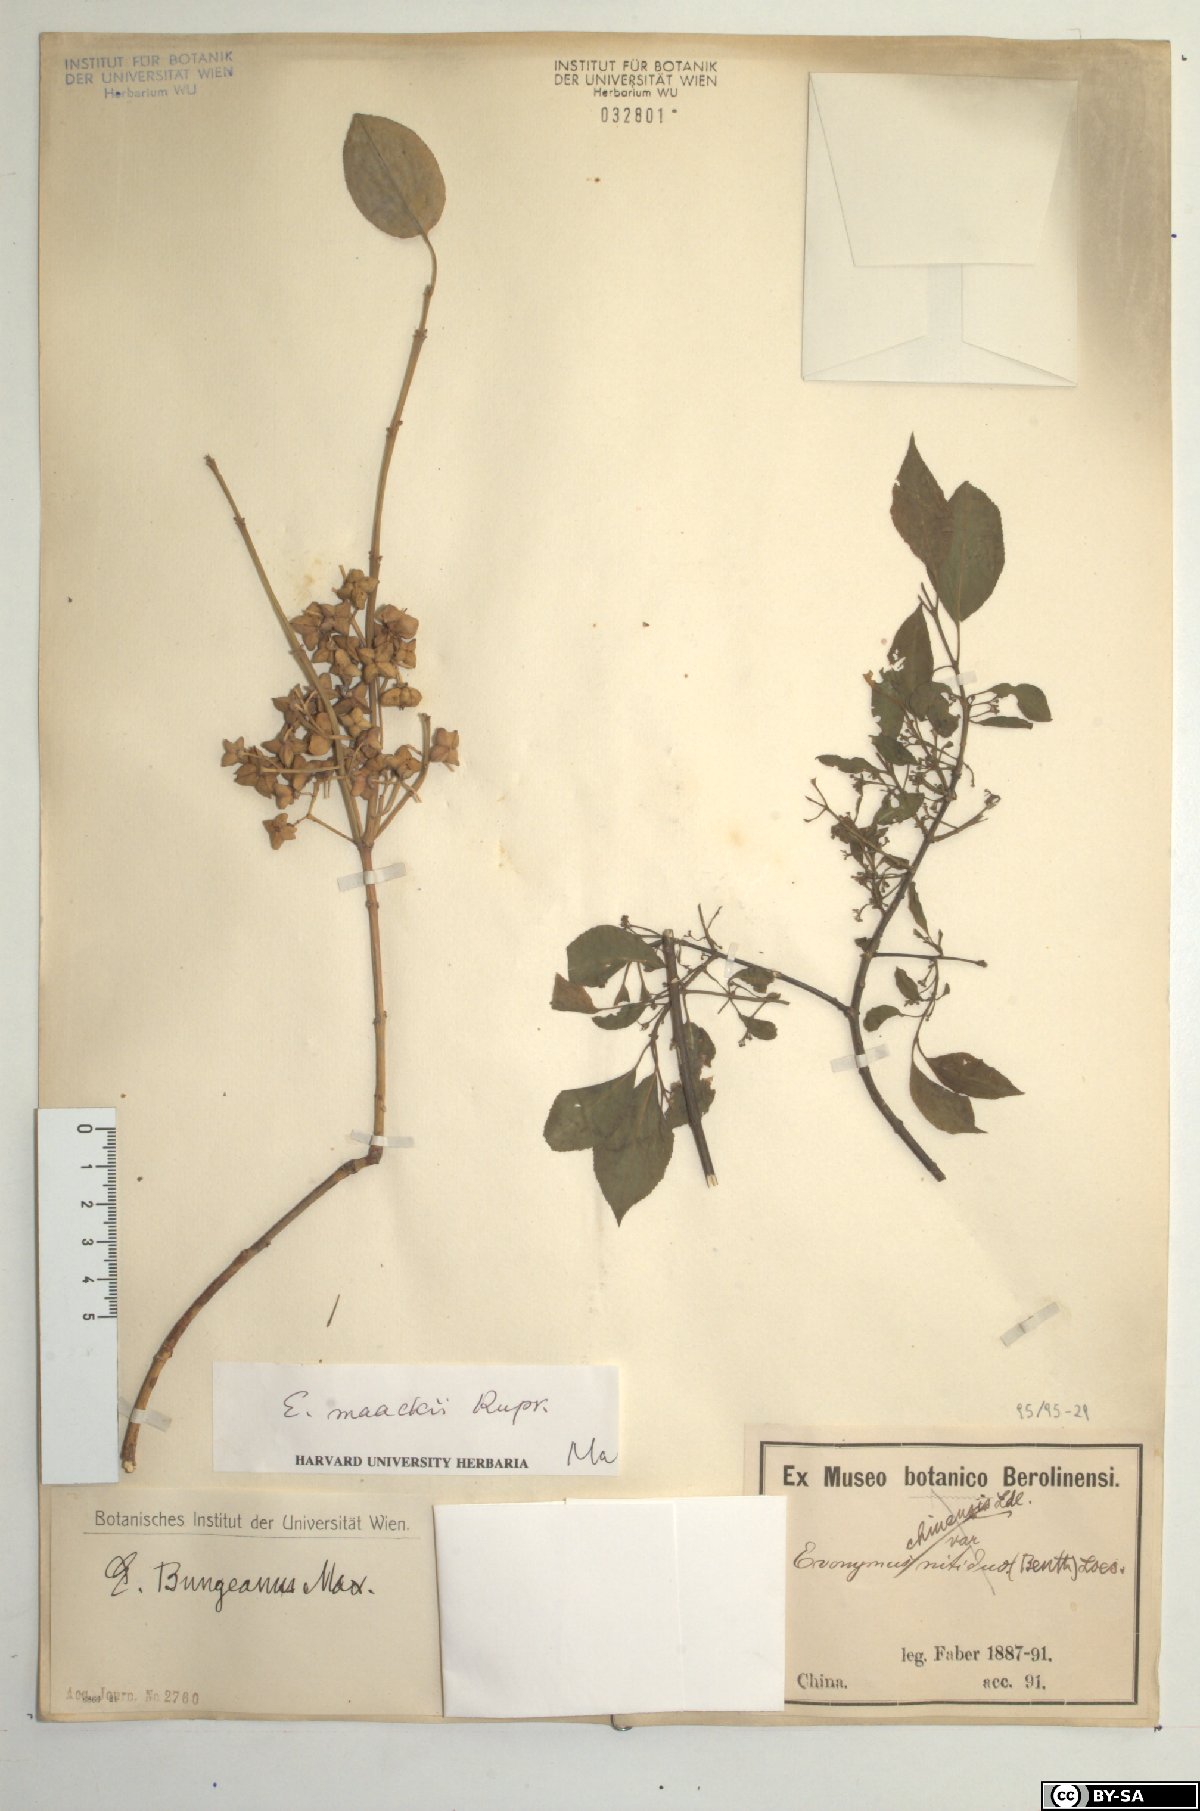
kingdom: Plantae
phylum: Tracheophyta
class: Magnoliopsida
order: Celastrales
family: Celastraceae
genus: Euonymus
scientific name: Euonymus maackii
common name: Hamilton's spindletree
